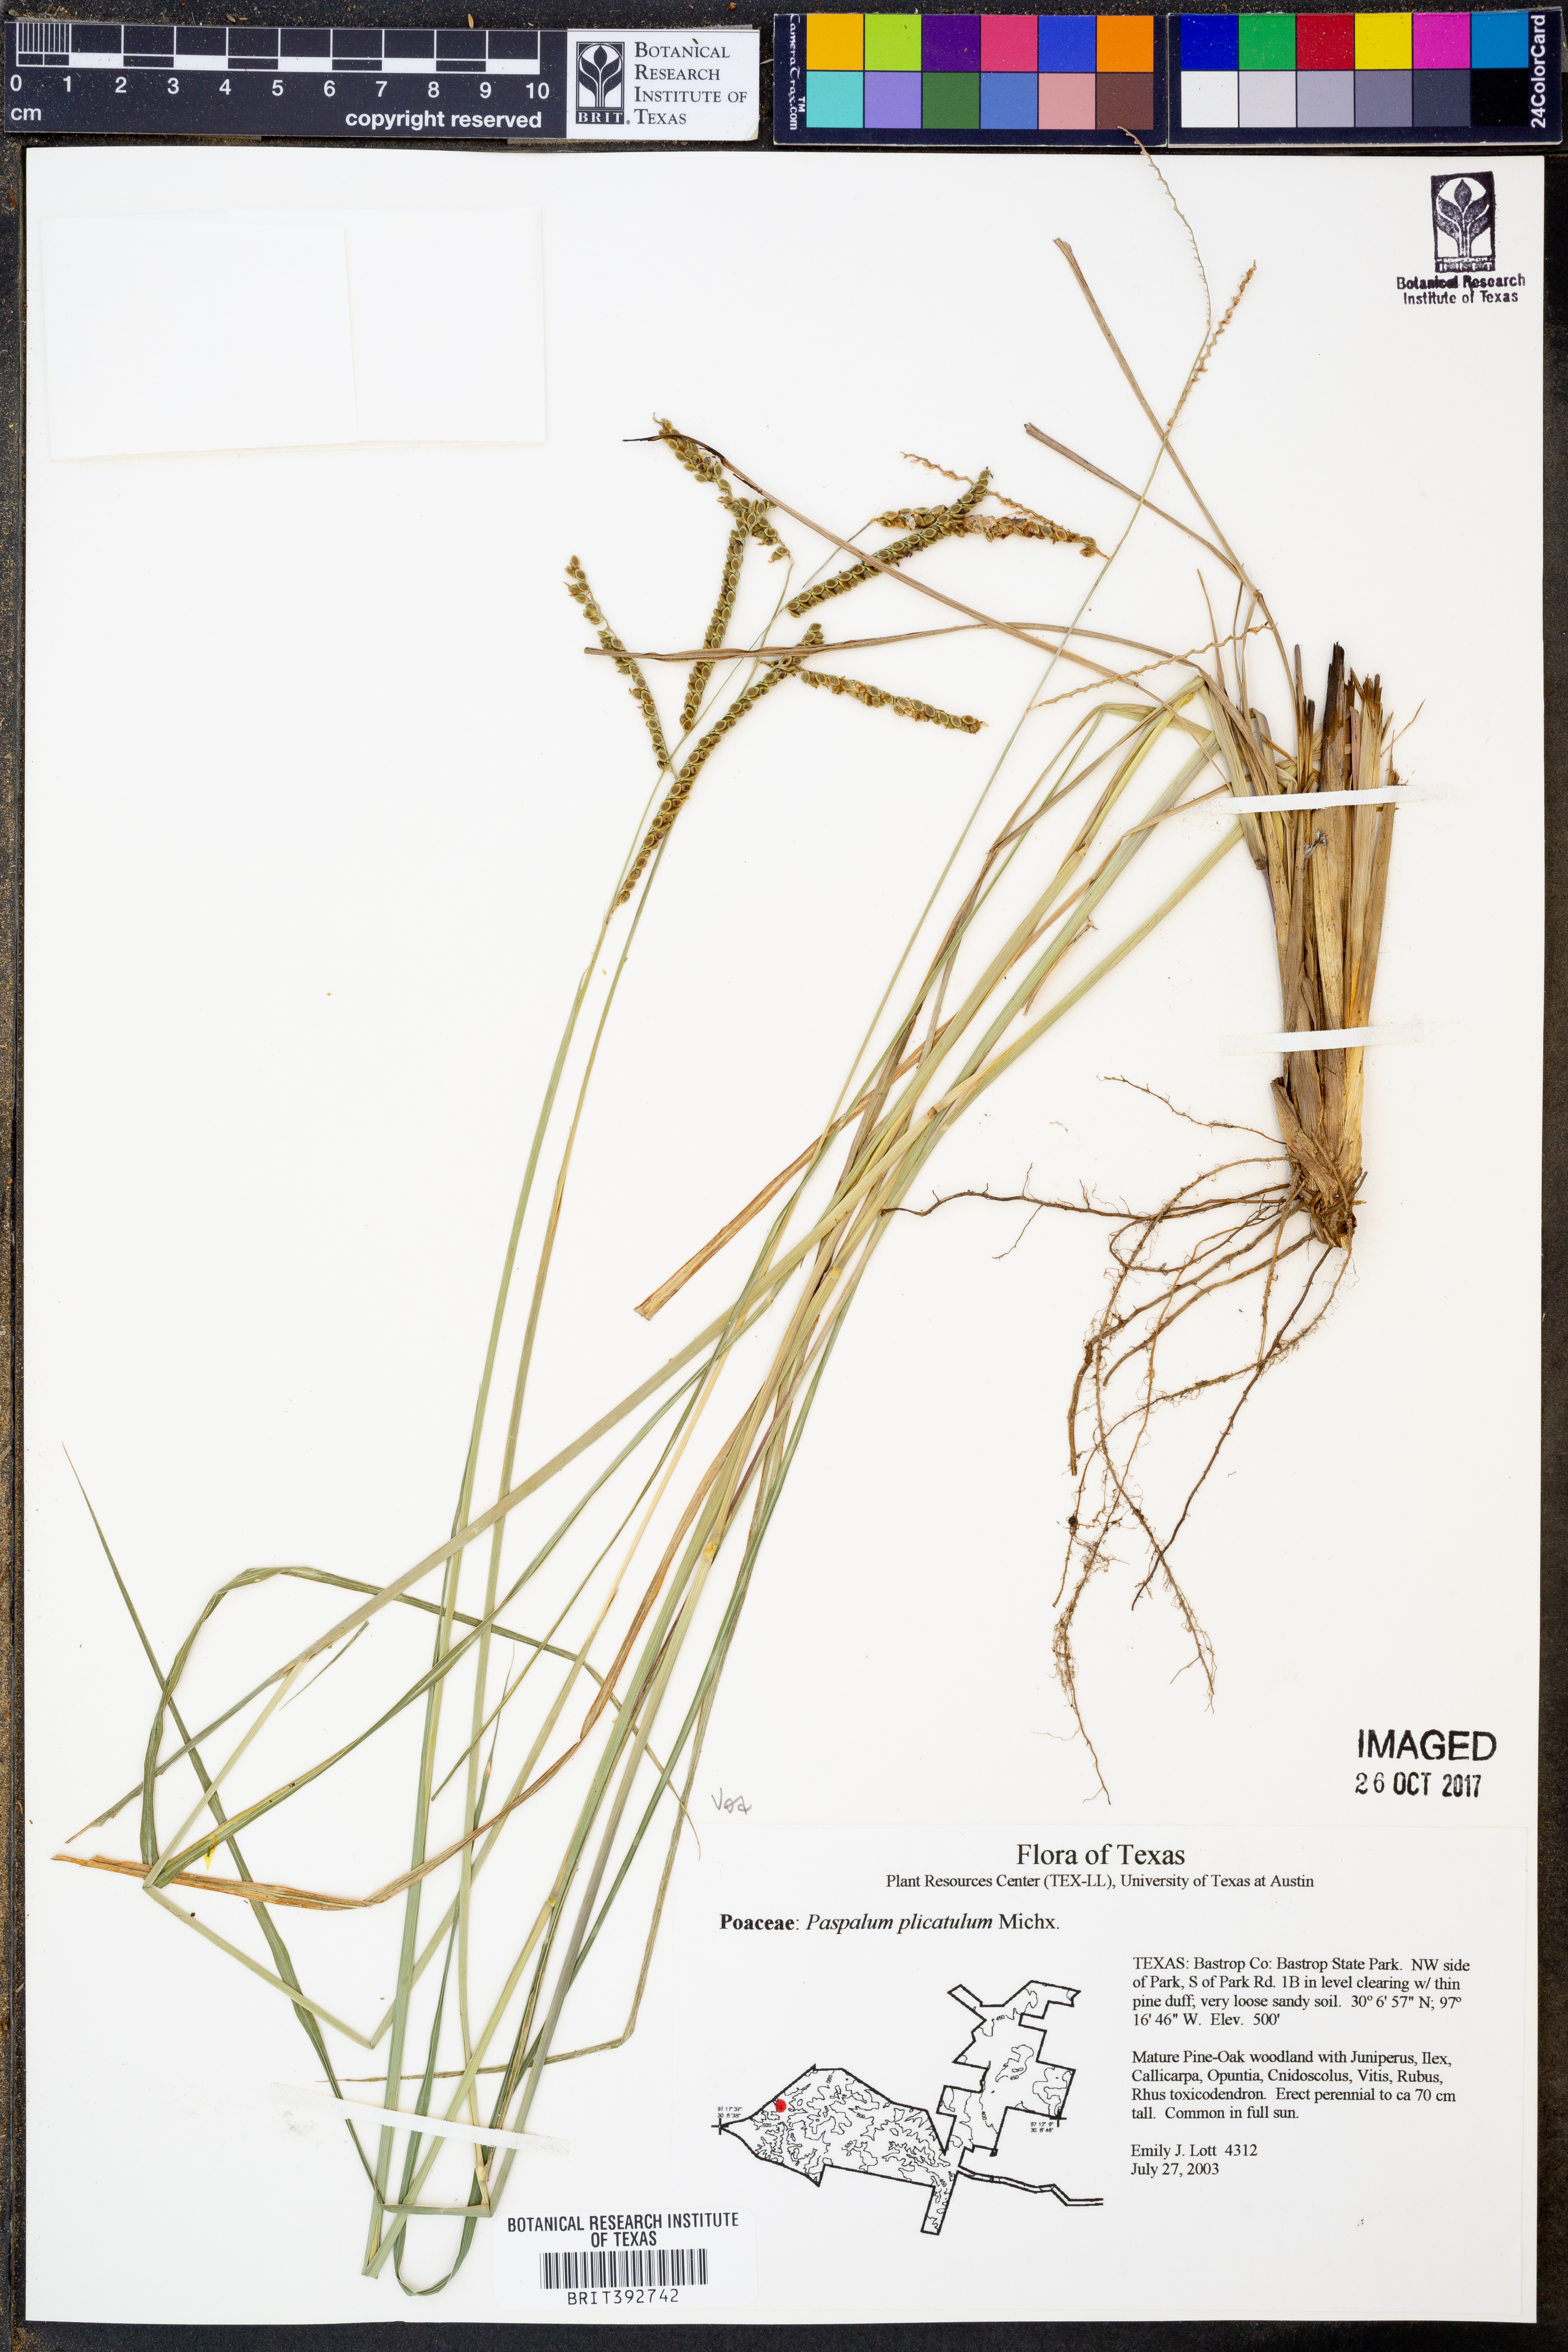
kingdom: Plantae
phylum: Tracheophyta
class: Liliopsida
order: Poales
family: Poaceae
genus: Paspalum
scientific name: Paspalum plicatulum
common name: Top paspalum
